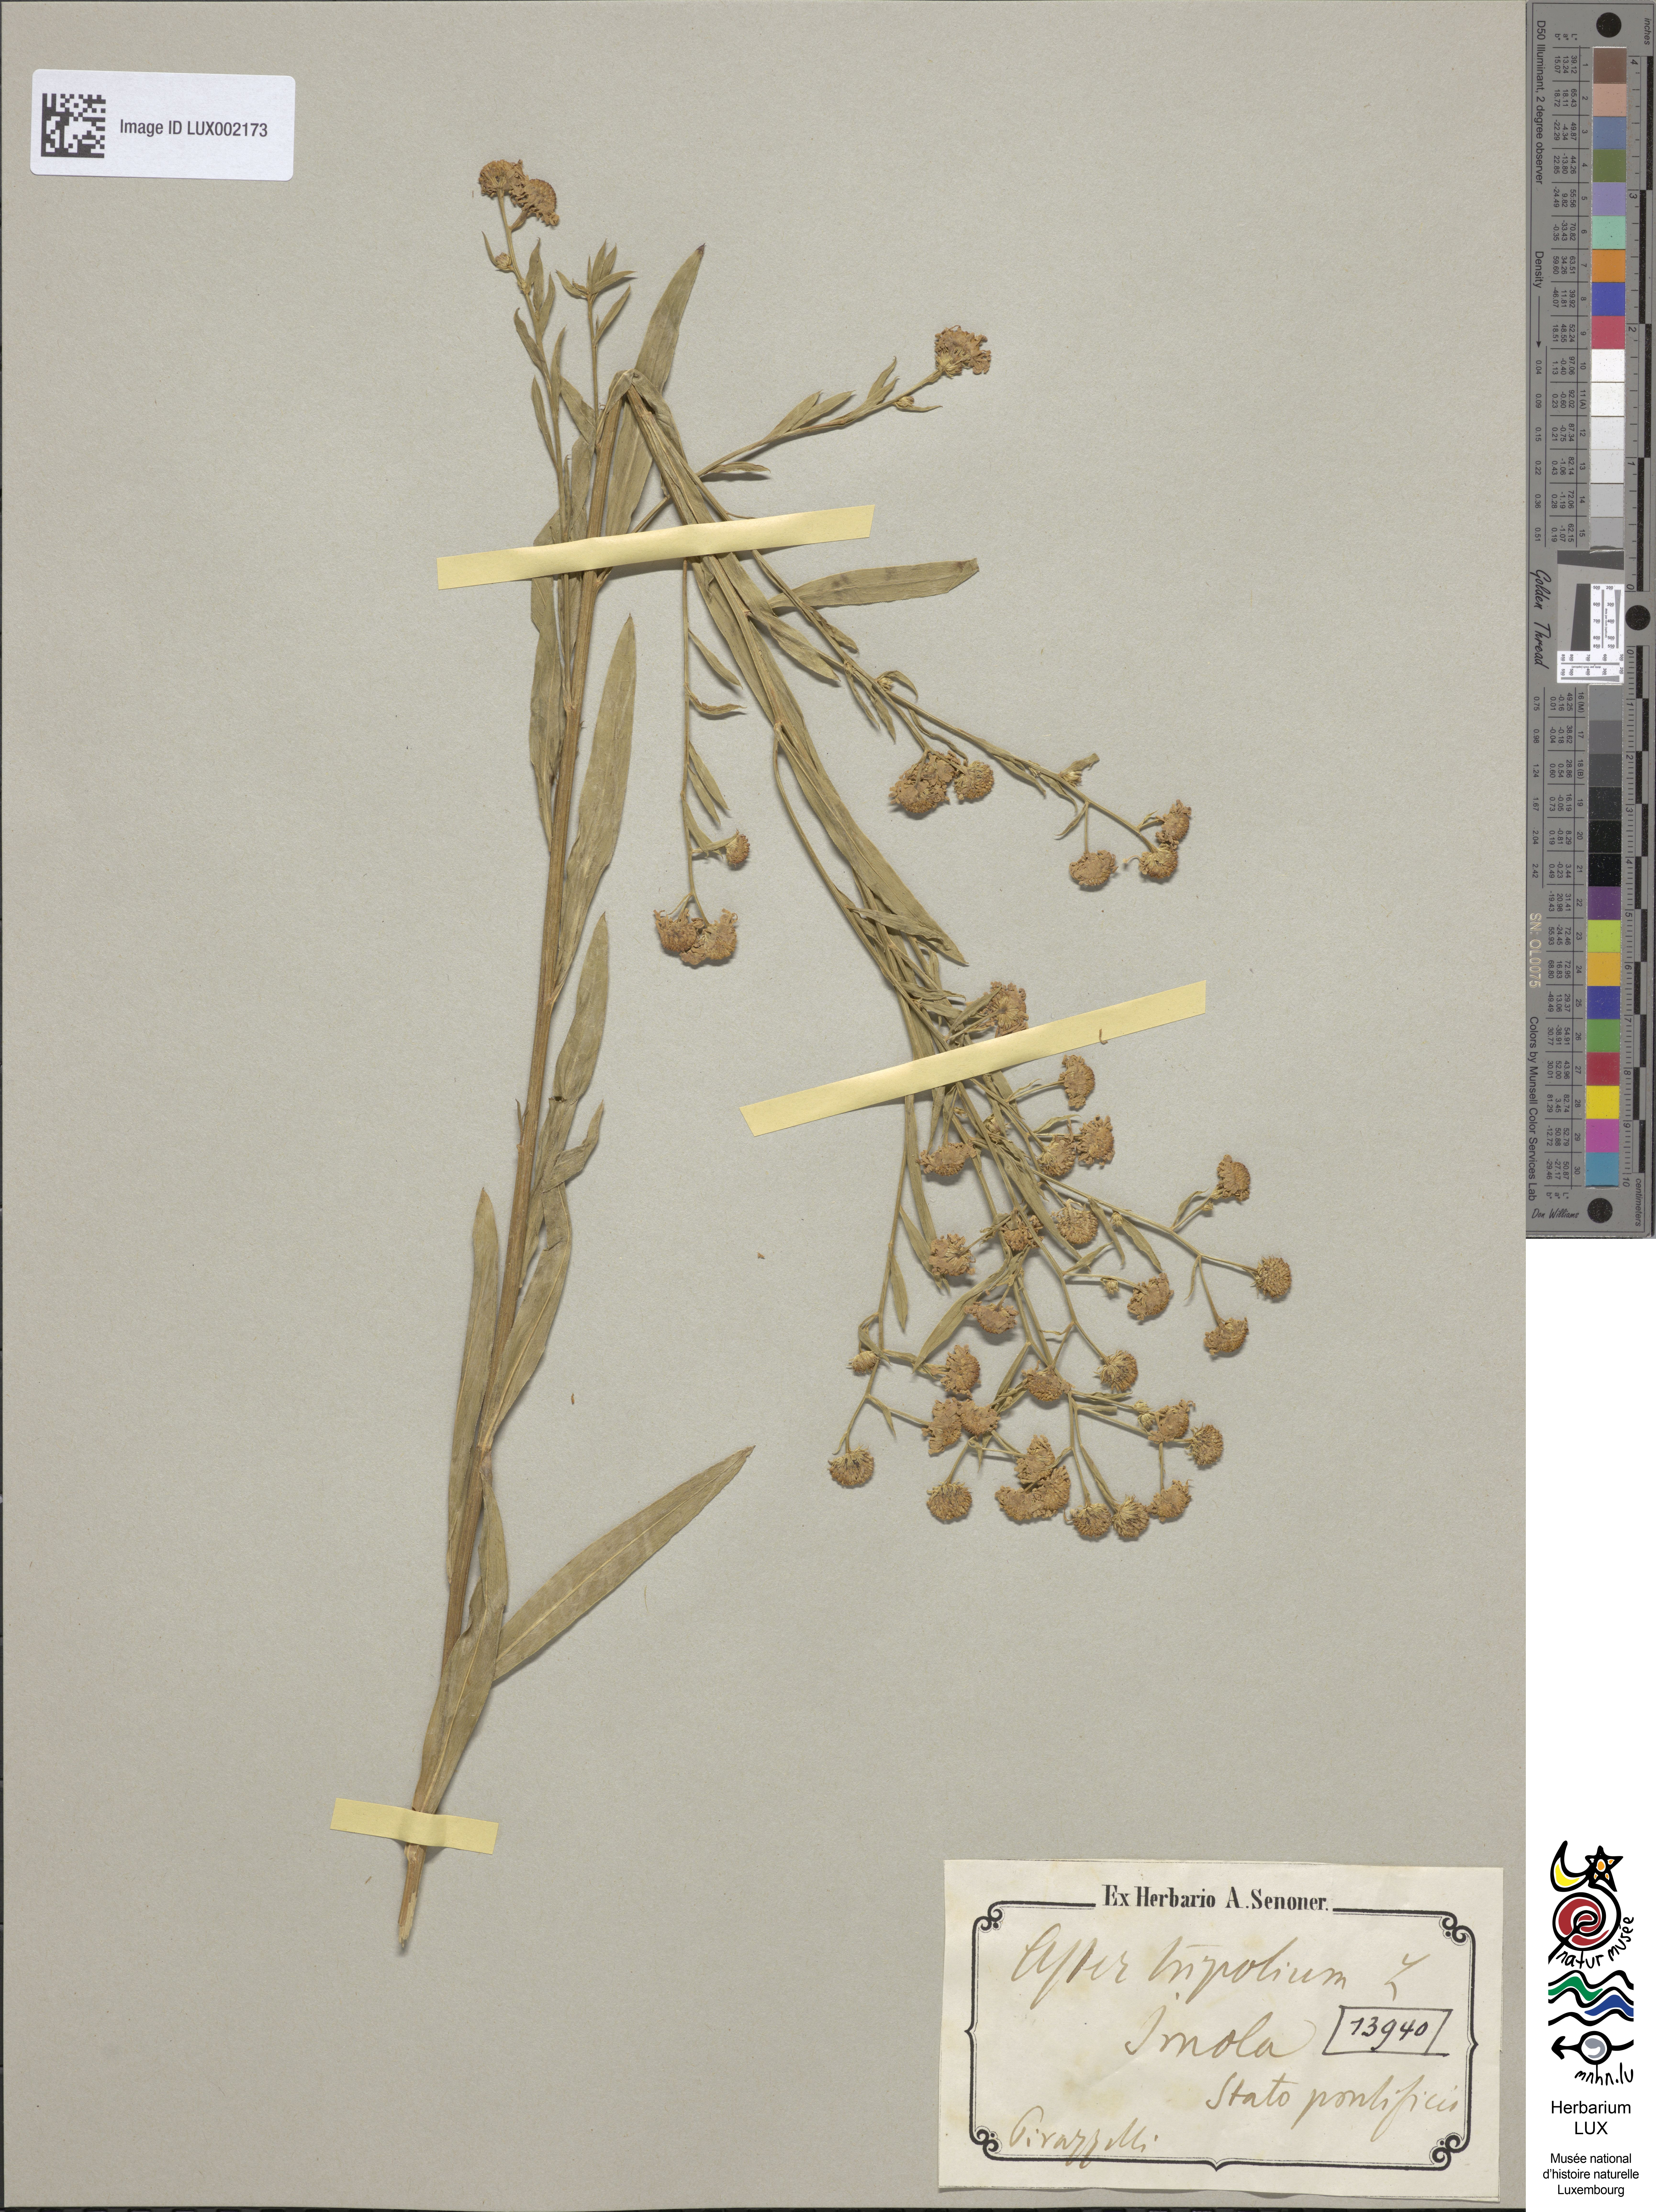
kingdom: Plantae
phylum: Tracheophyta
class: Magnoliopsida
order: Asterales
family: Asteraceae
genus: Tripolium
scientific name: Tripolium pannonicum
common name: Sea aster
